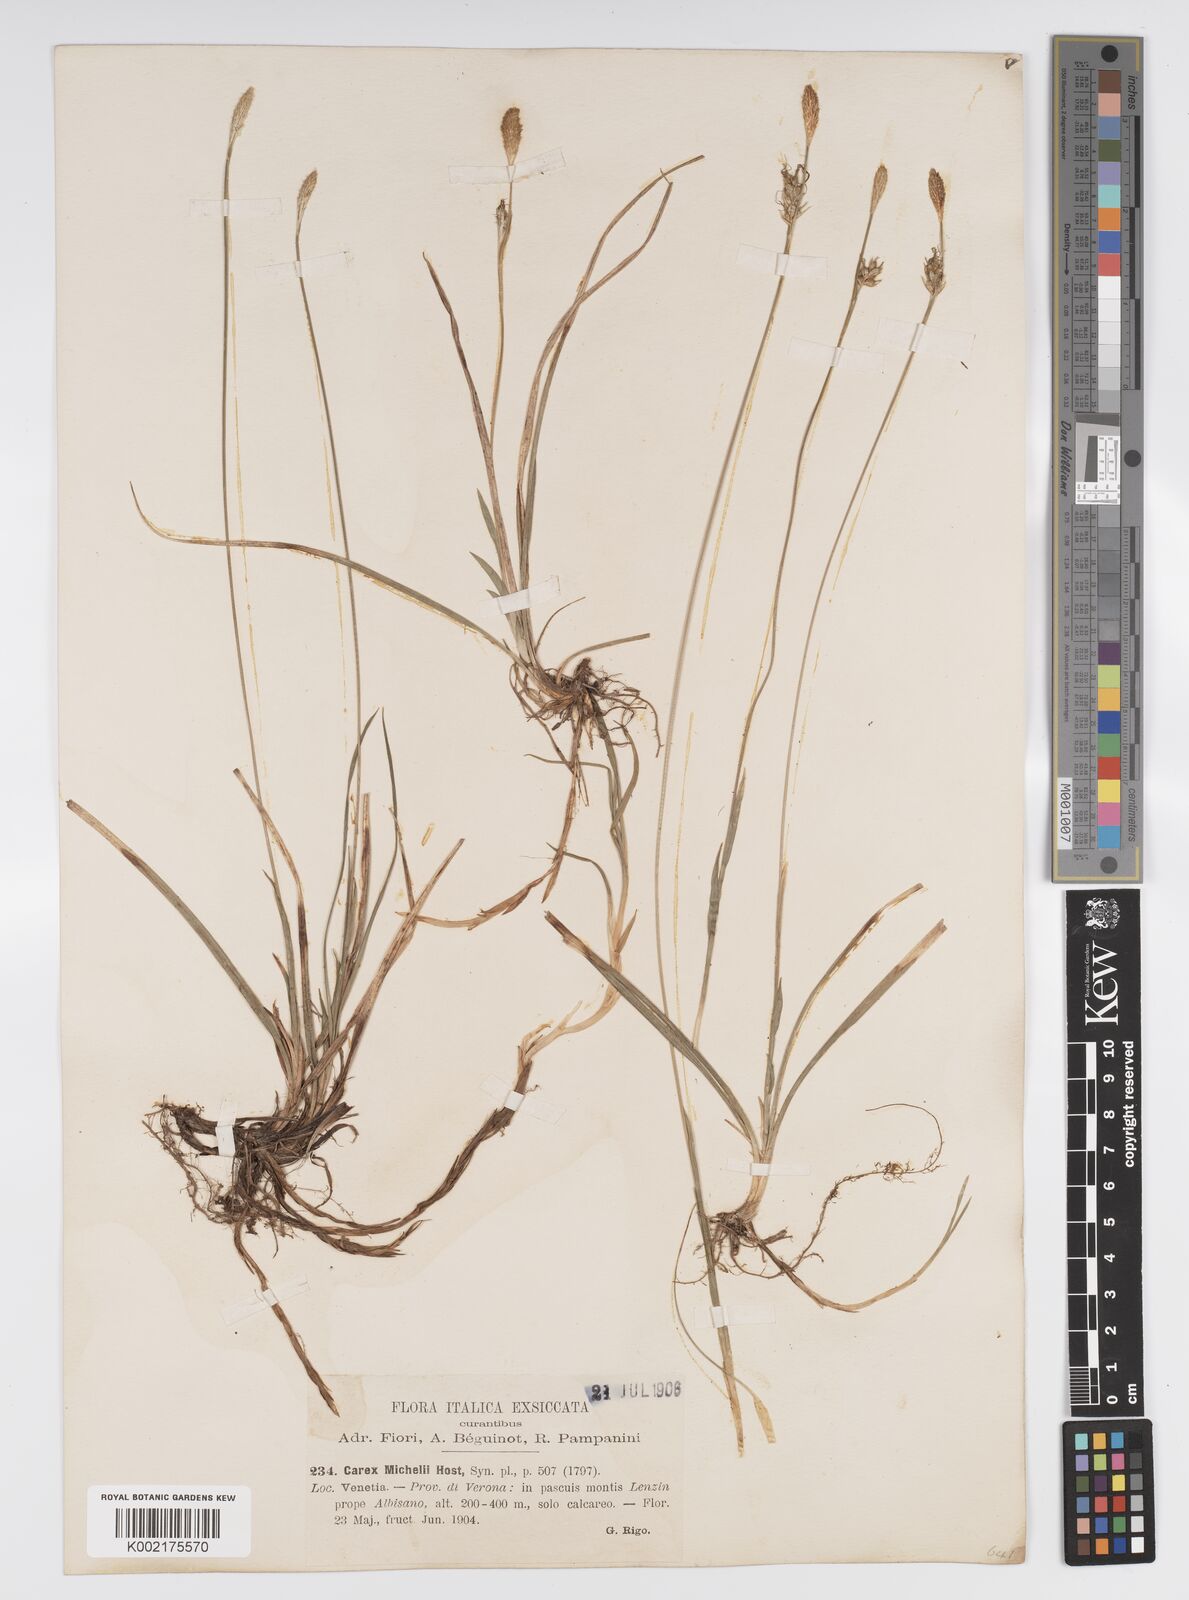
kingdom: Plantae
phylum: Tracheophyta
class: Liliopsida
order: Poales
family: Cyperaceae
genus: Carex
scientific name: Carex michelii
